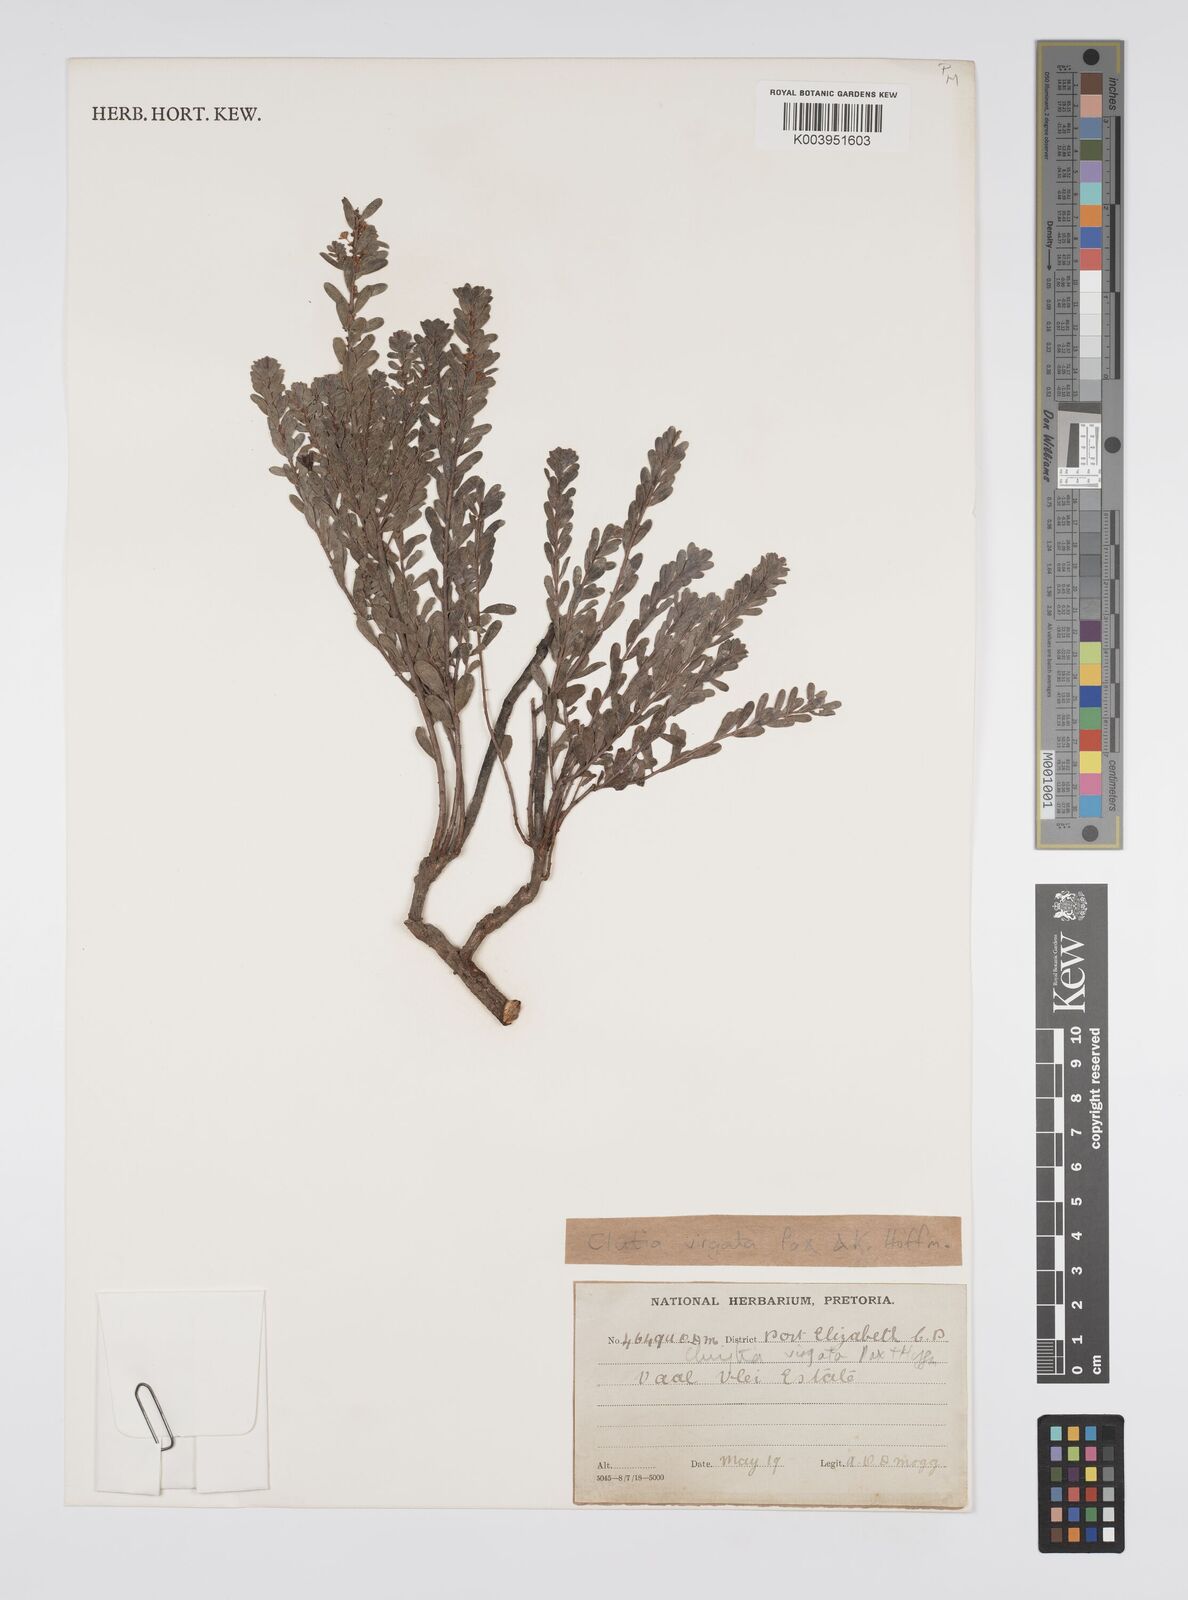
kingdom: Plantae
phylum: Tracheophyta
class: Magnoliopsida
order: Malpighiales
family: Peraceae
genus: Clutia
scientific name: Clutia virgata
